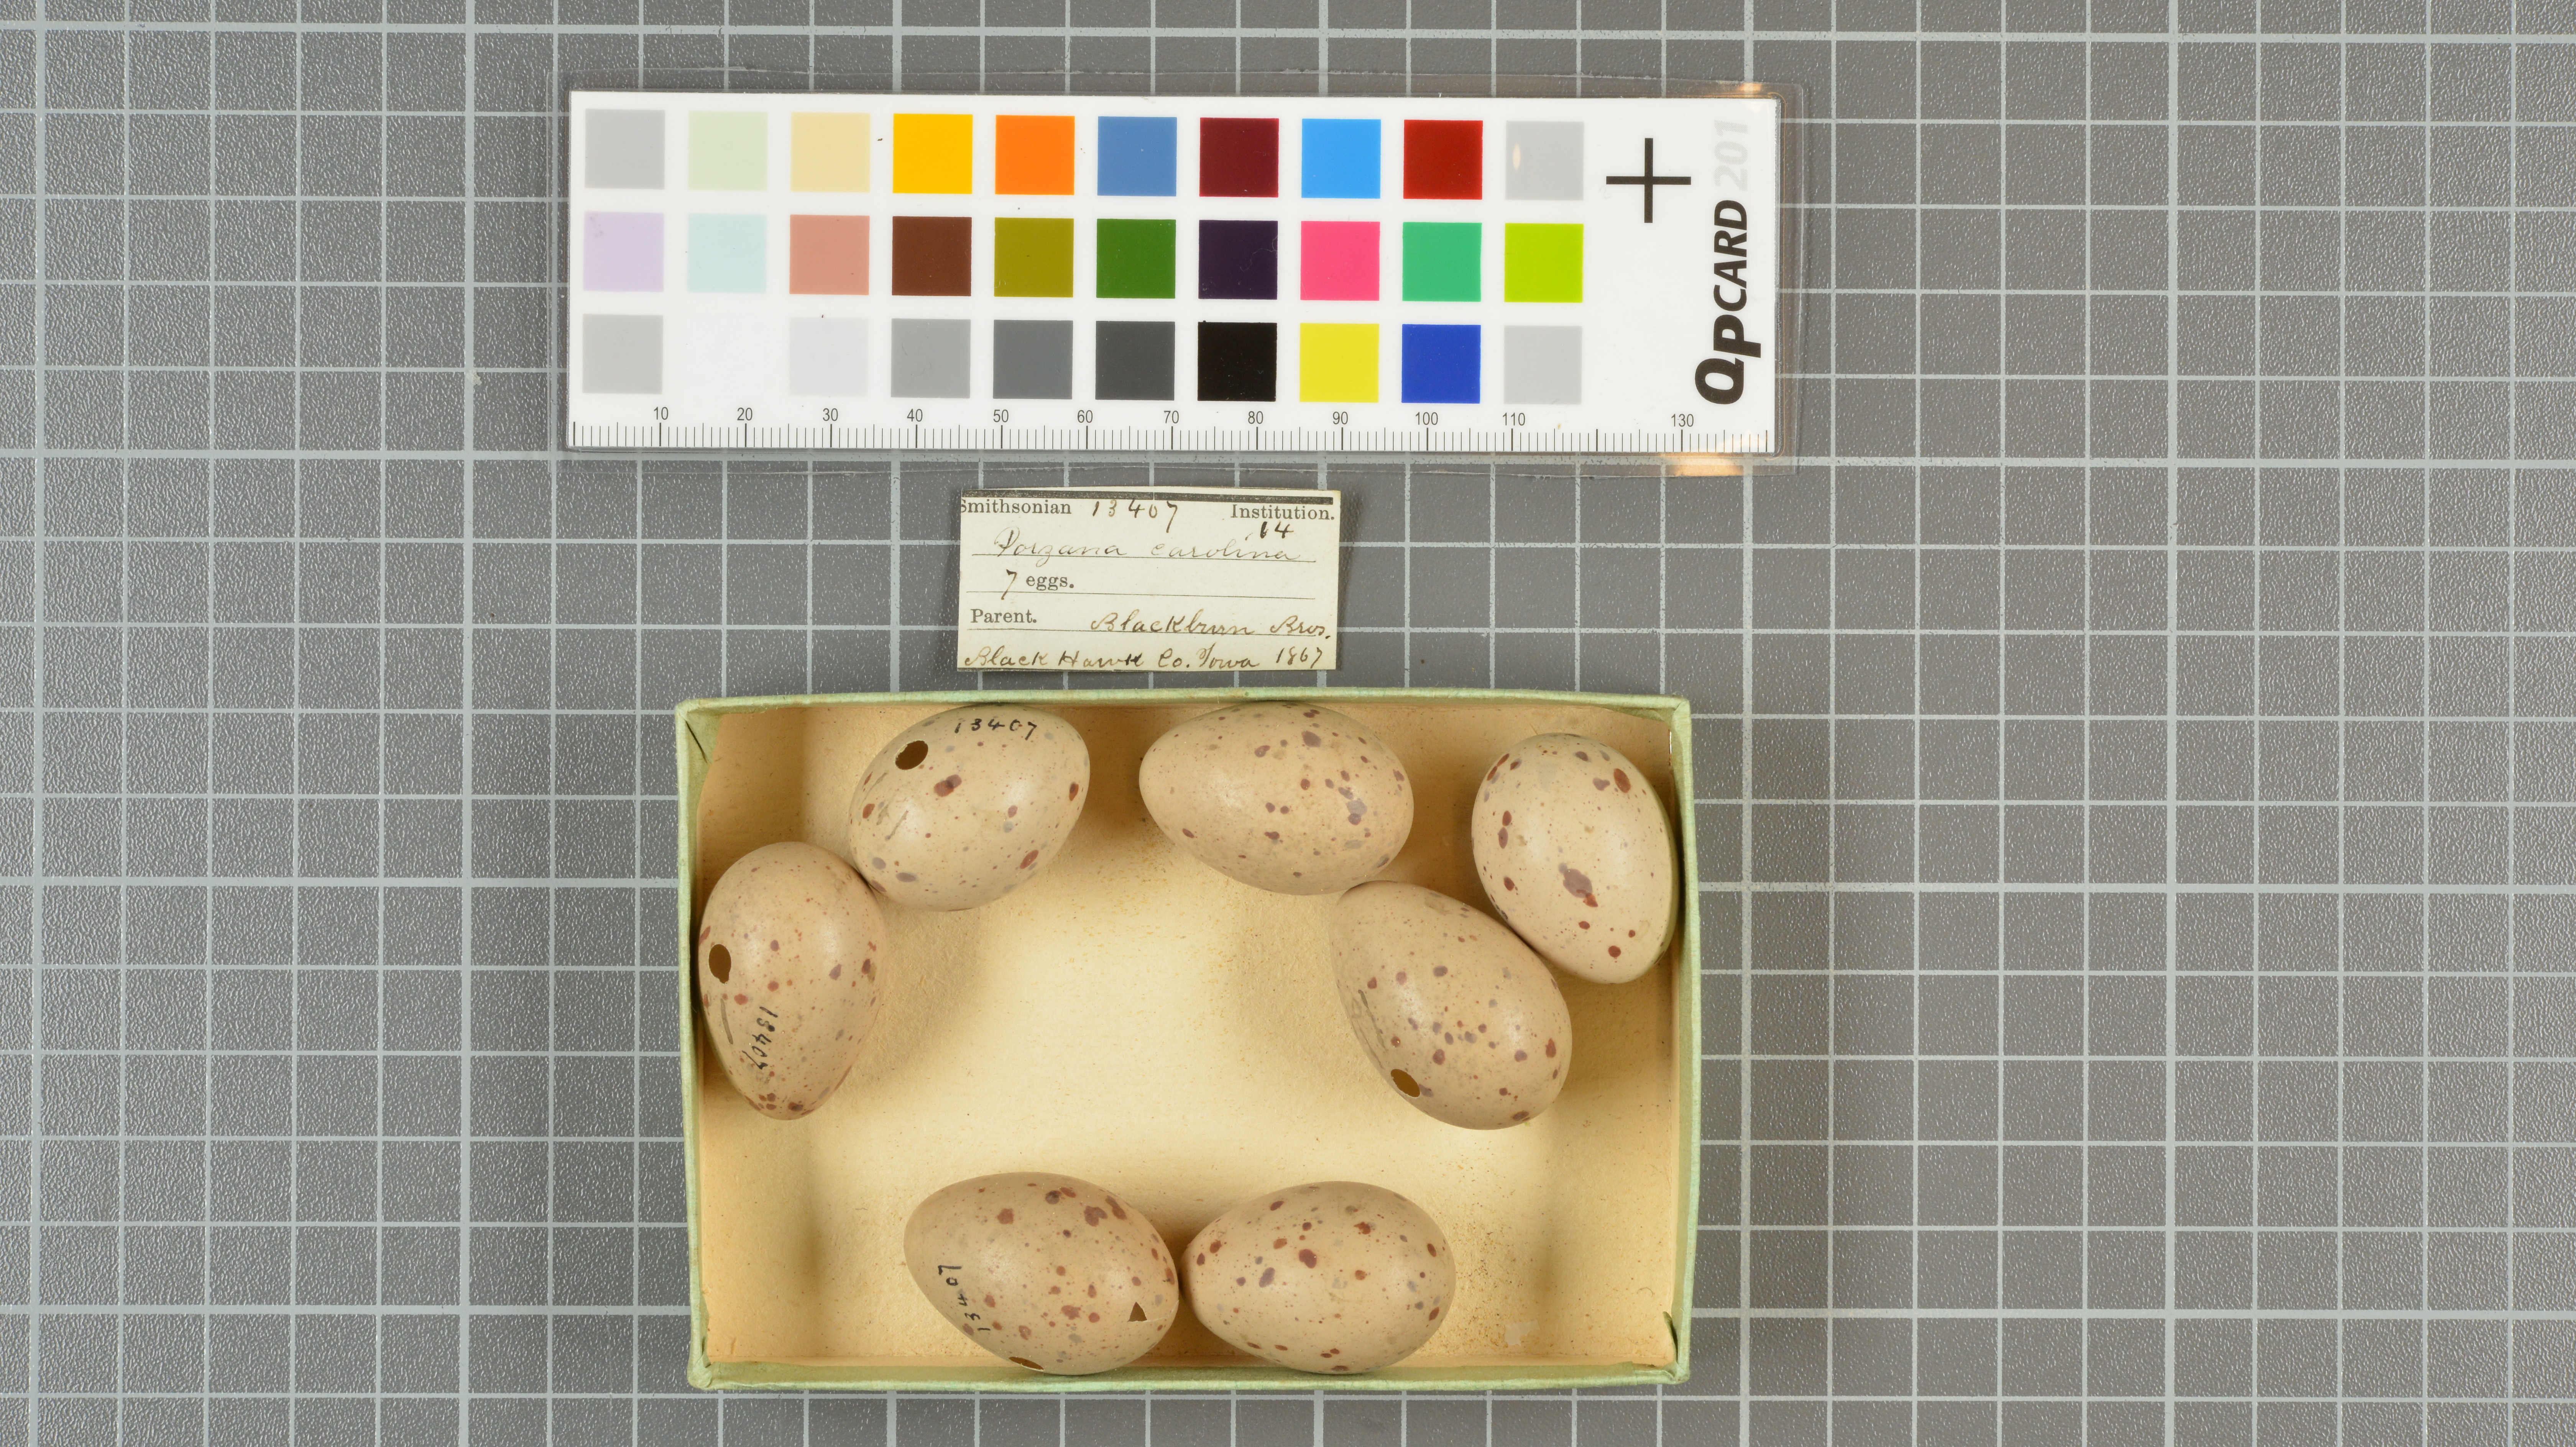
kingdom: Animalia
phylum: Chordata
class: Aves
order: Gruiformes
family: Rallidae
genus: Porzana
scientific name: Porzana carolina
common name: Sora
